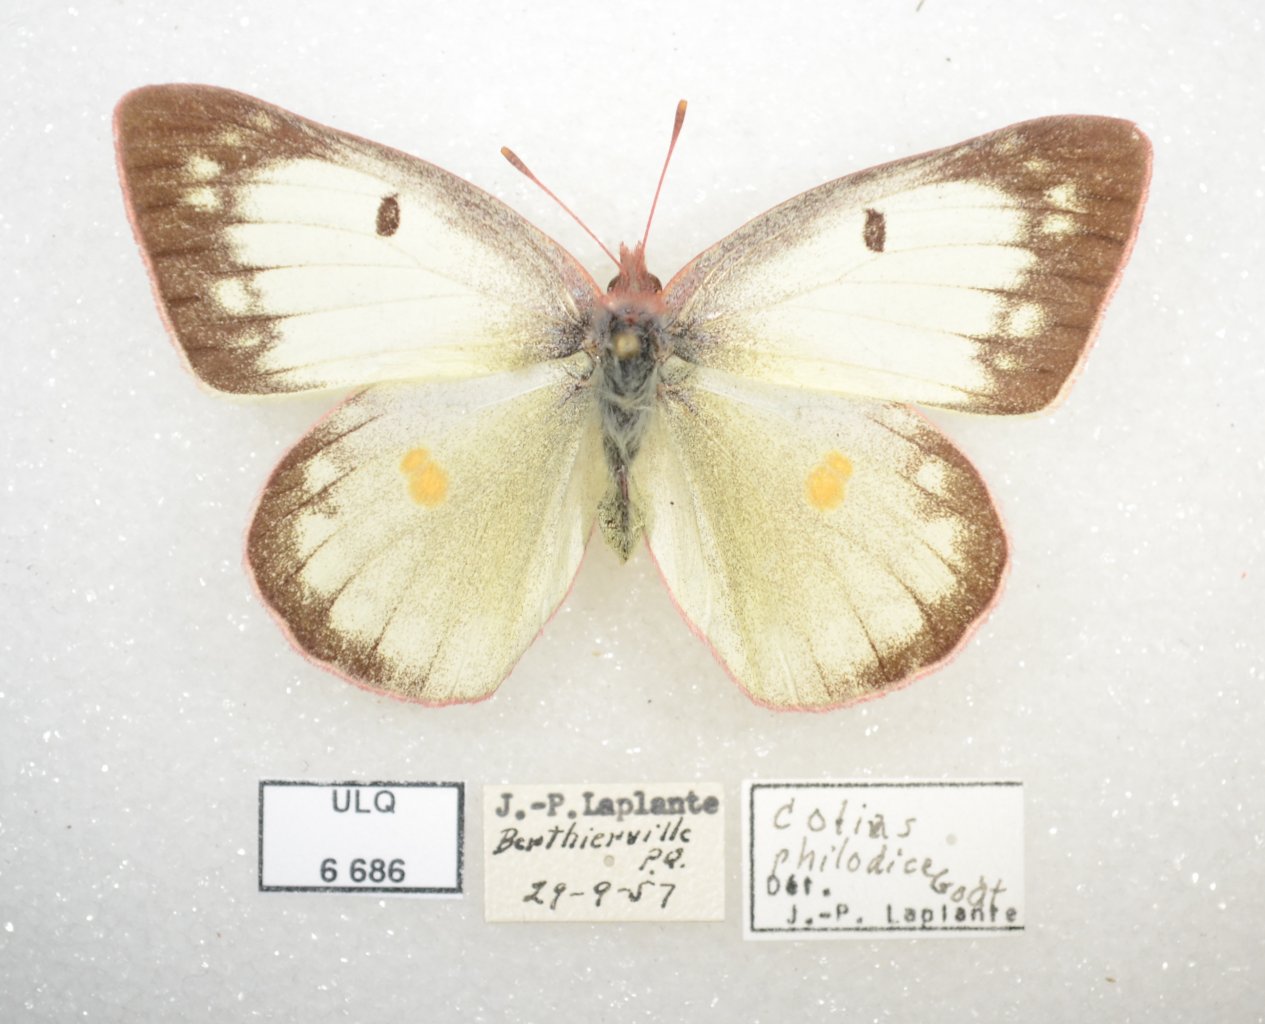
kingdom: Animalia
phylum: Arthropoda
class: Insecta
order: Lepidoptera
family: Pieridae
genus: Colias
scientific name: Colias philodice
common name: Clouded Sulphur
